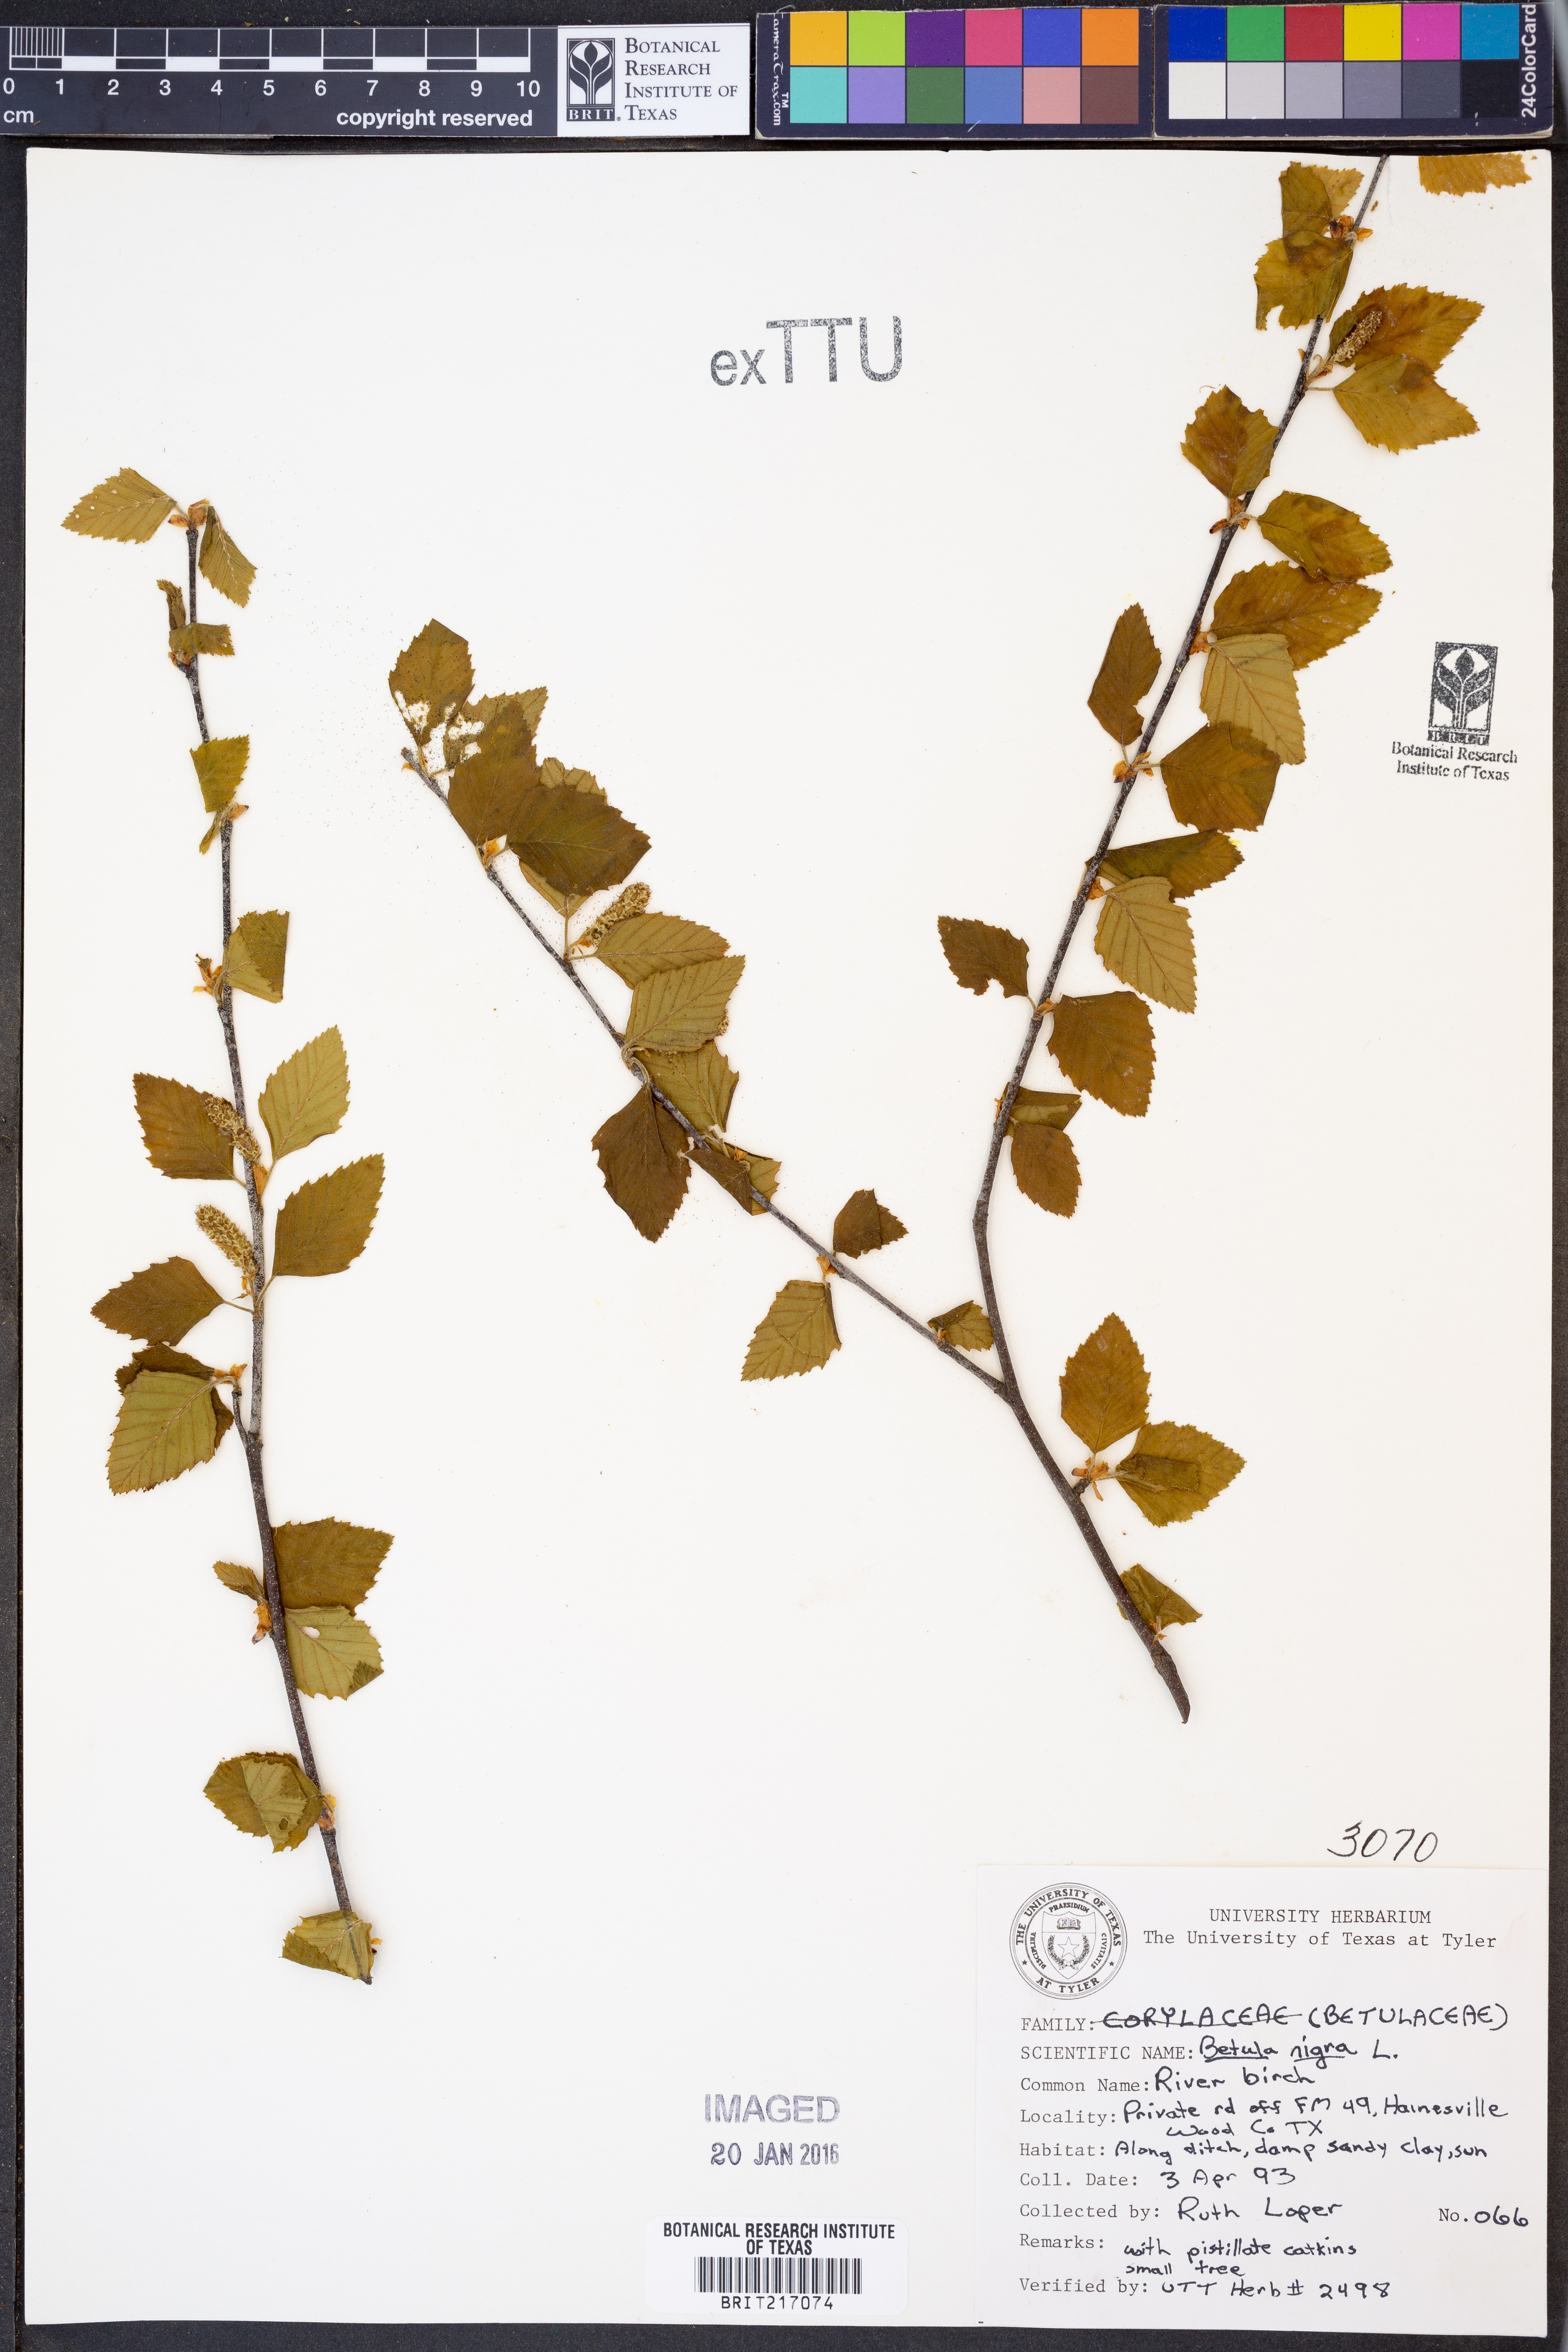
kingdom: Plantae
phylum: Tracheophyta
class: Magnoliopsida
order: Fagales
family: Betulaceae
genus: Betula
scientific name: Betula nigra
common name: Black birch
